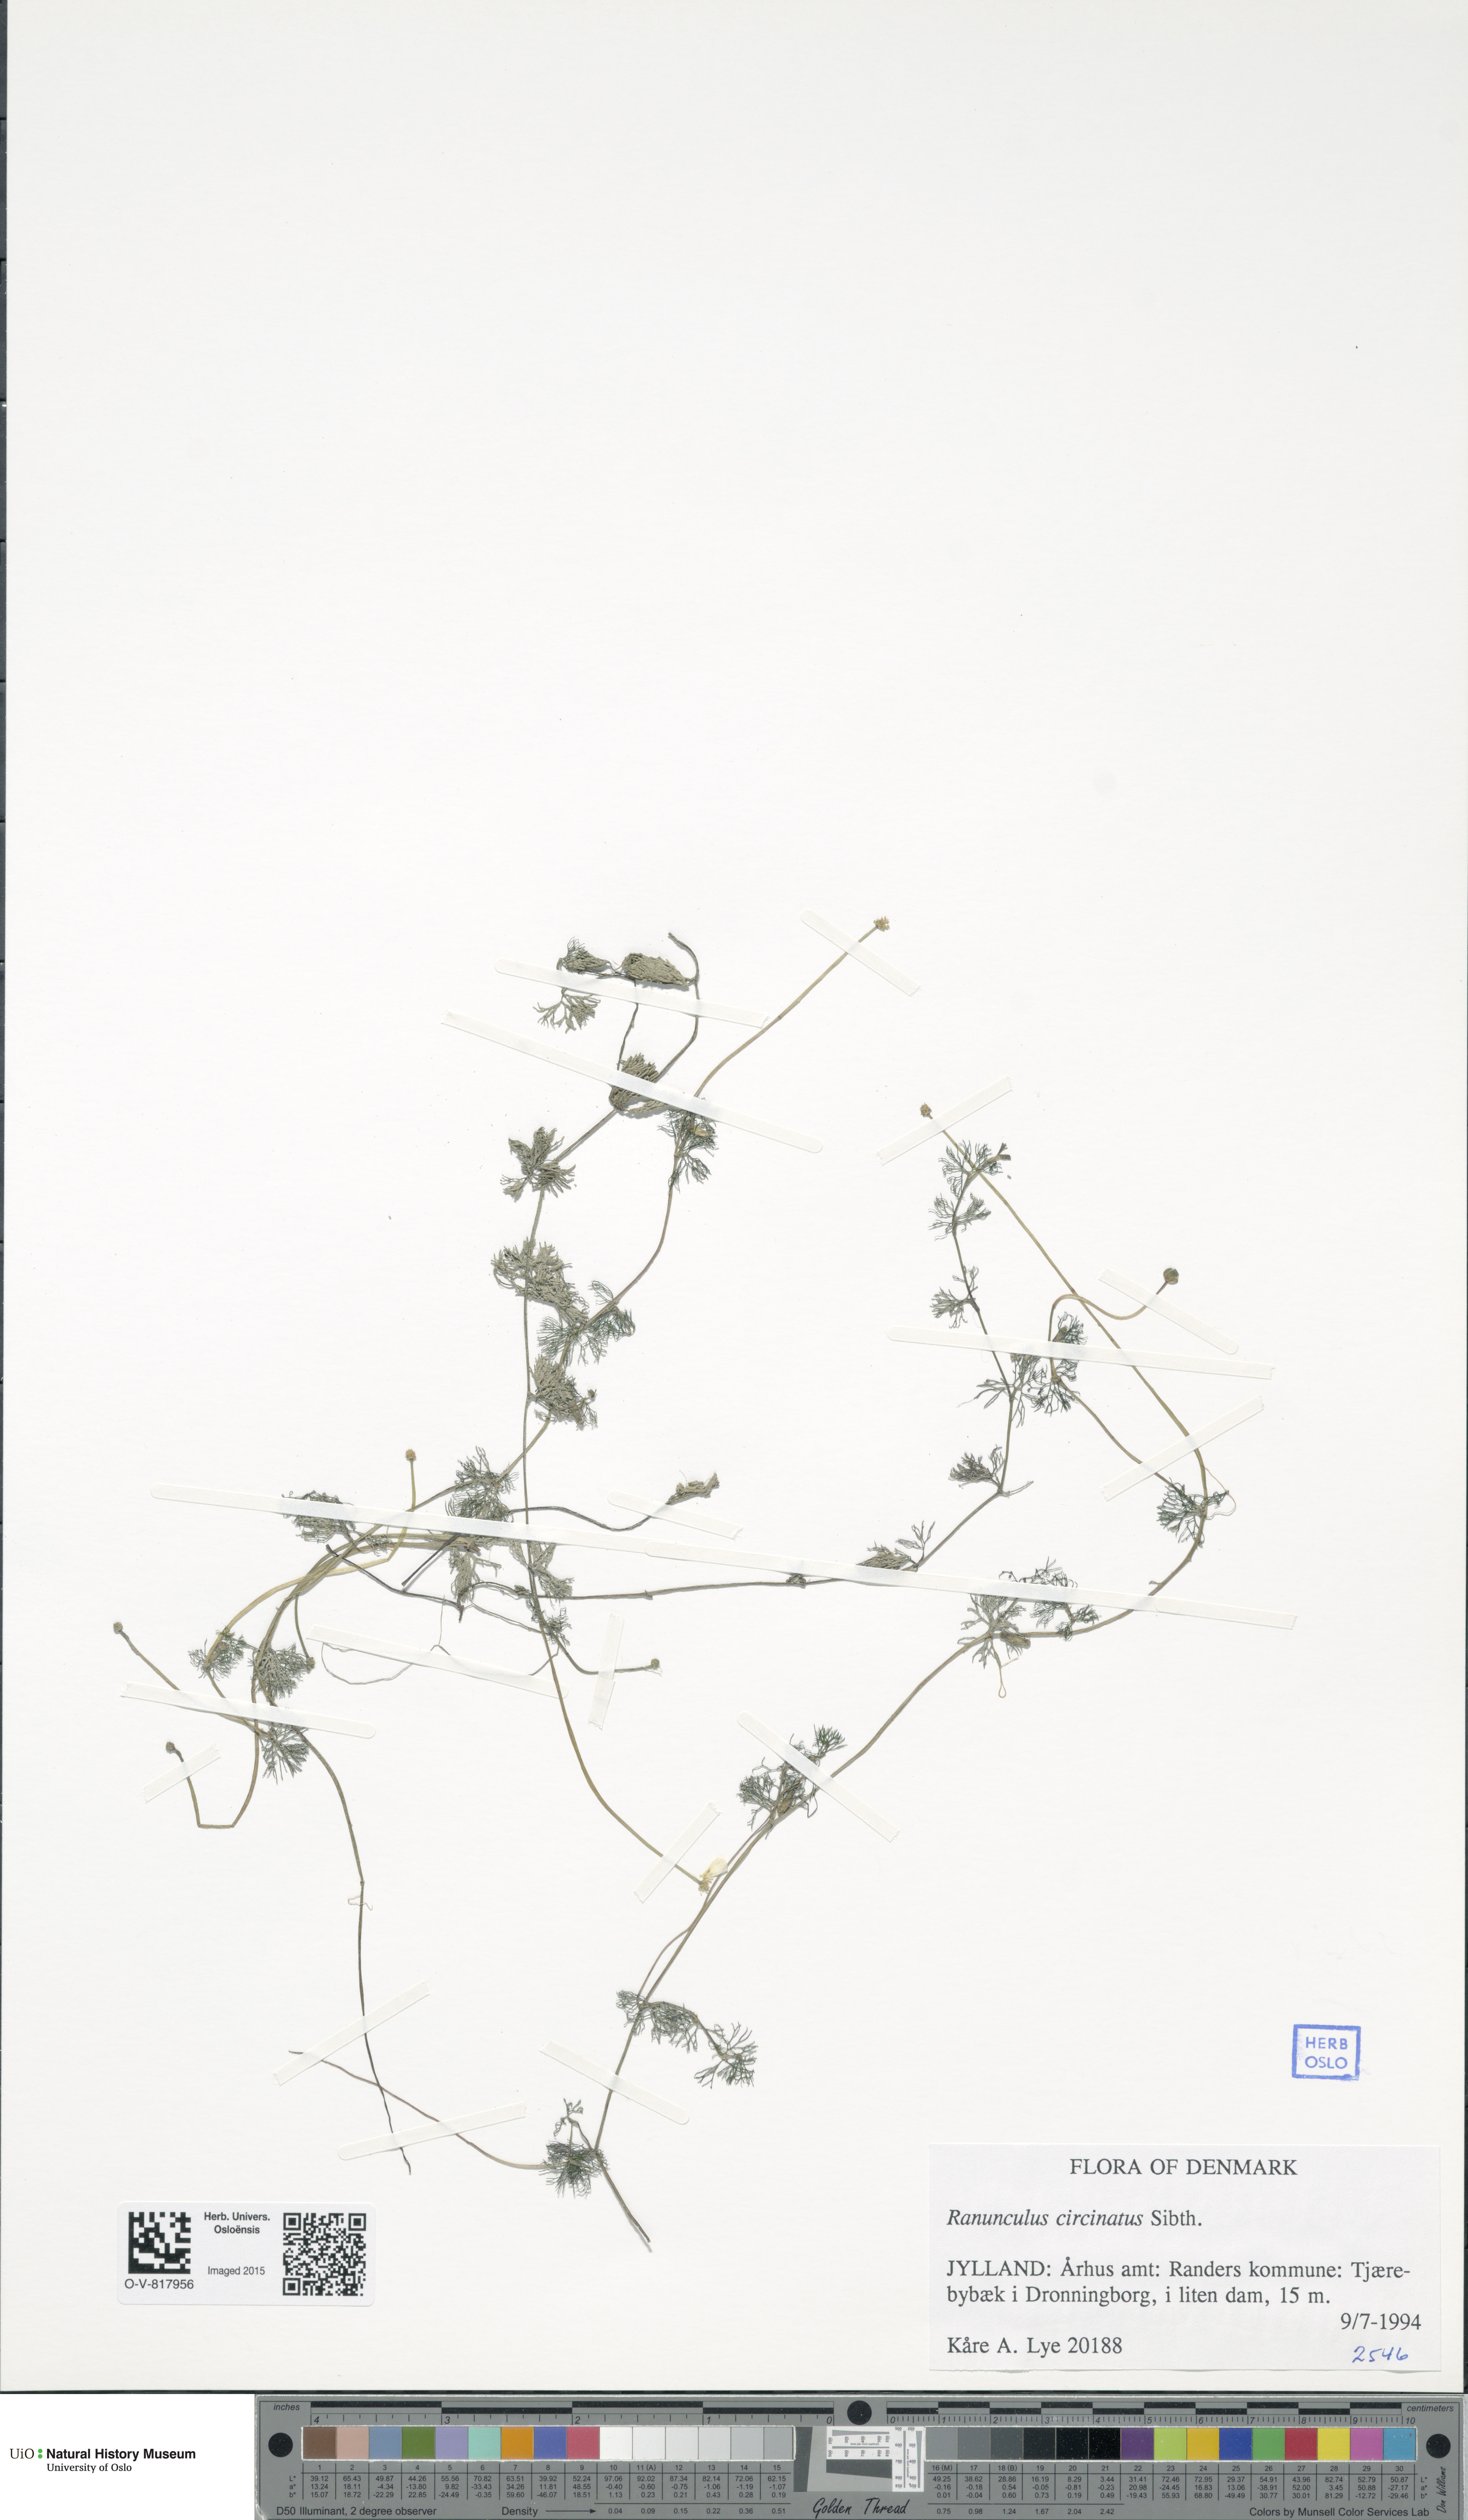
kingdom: Plantae
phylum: Tracheophyta
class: Magnoliopsida
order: Ranunculales
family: Ranunculaceae
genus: Ranunculus
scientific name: Ranunculus circinatus
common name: Fan-leaved water-crowfoot
